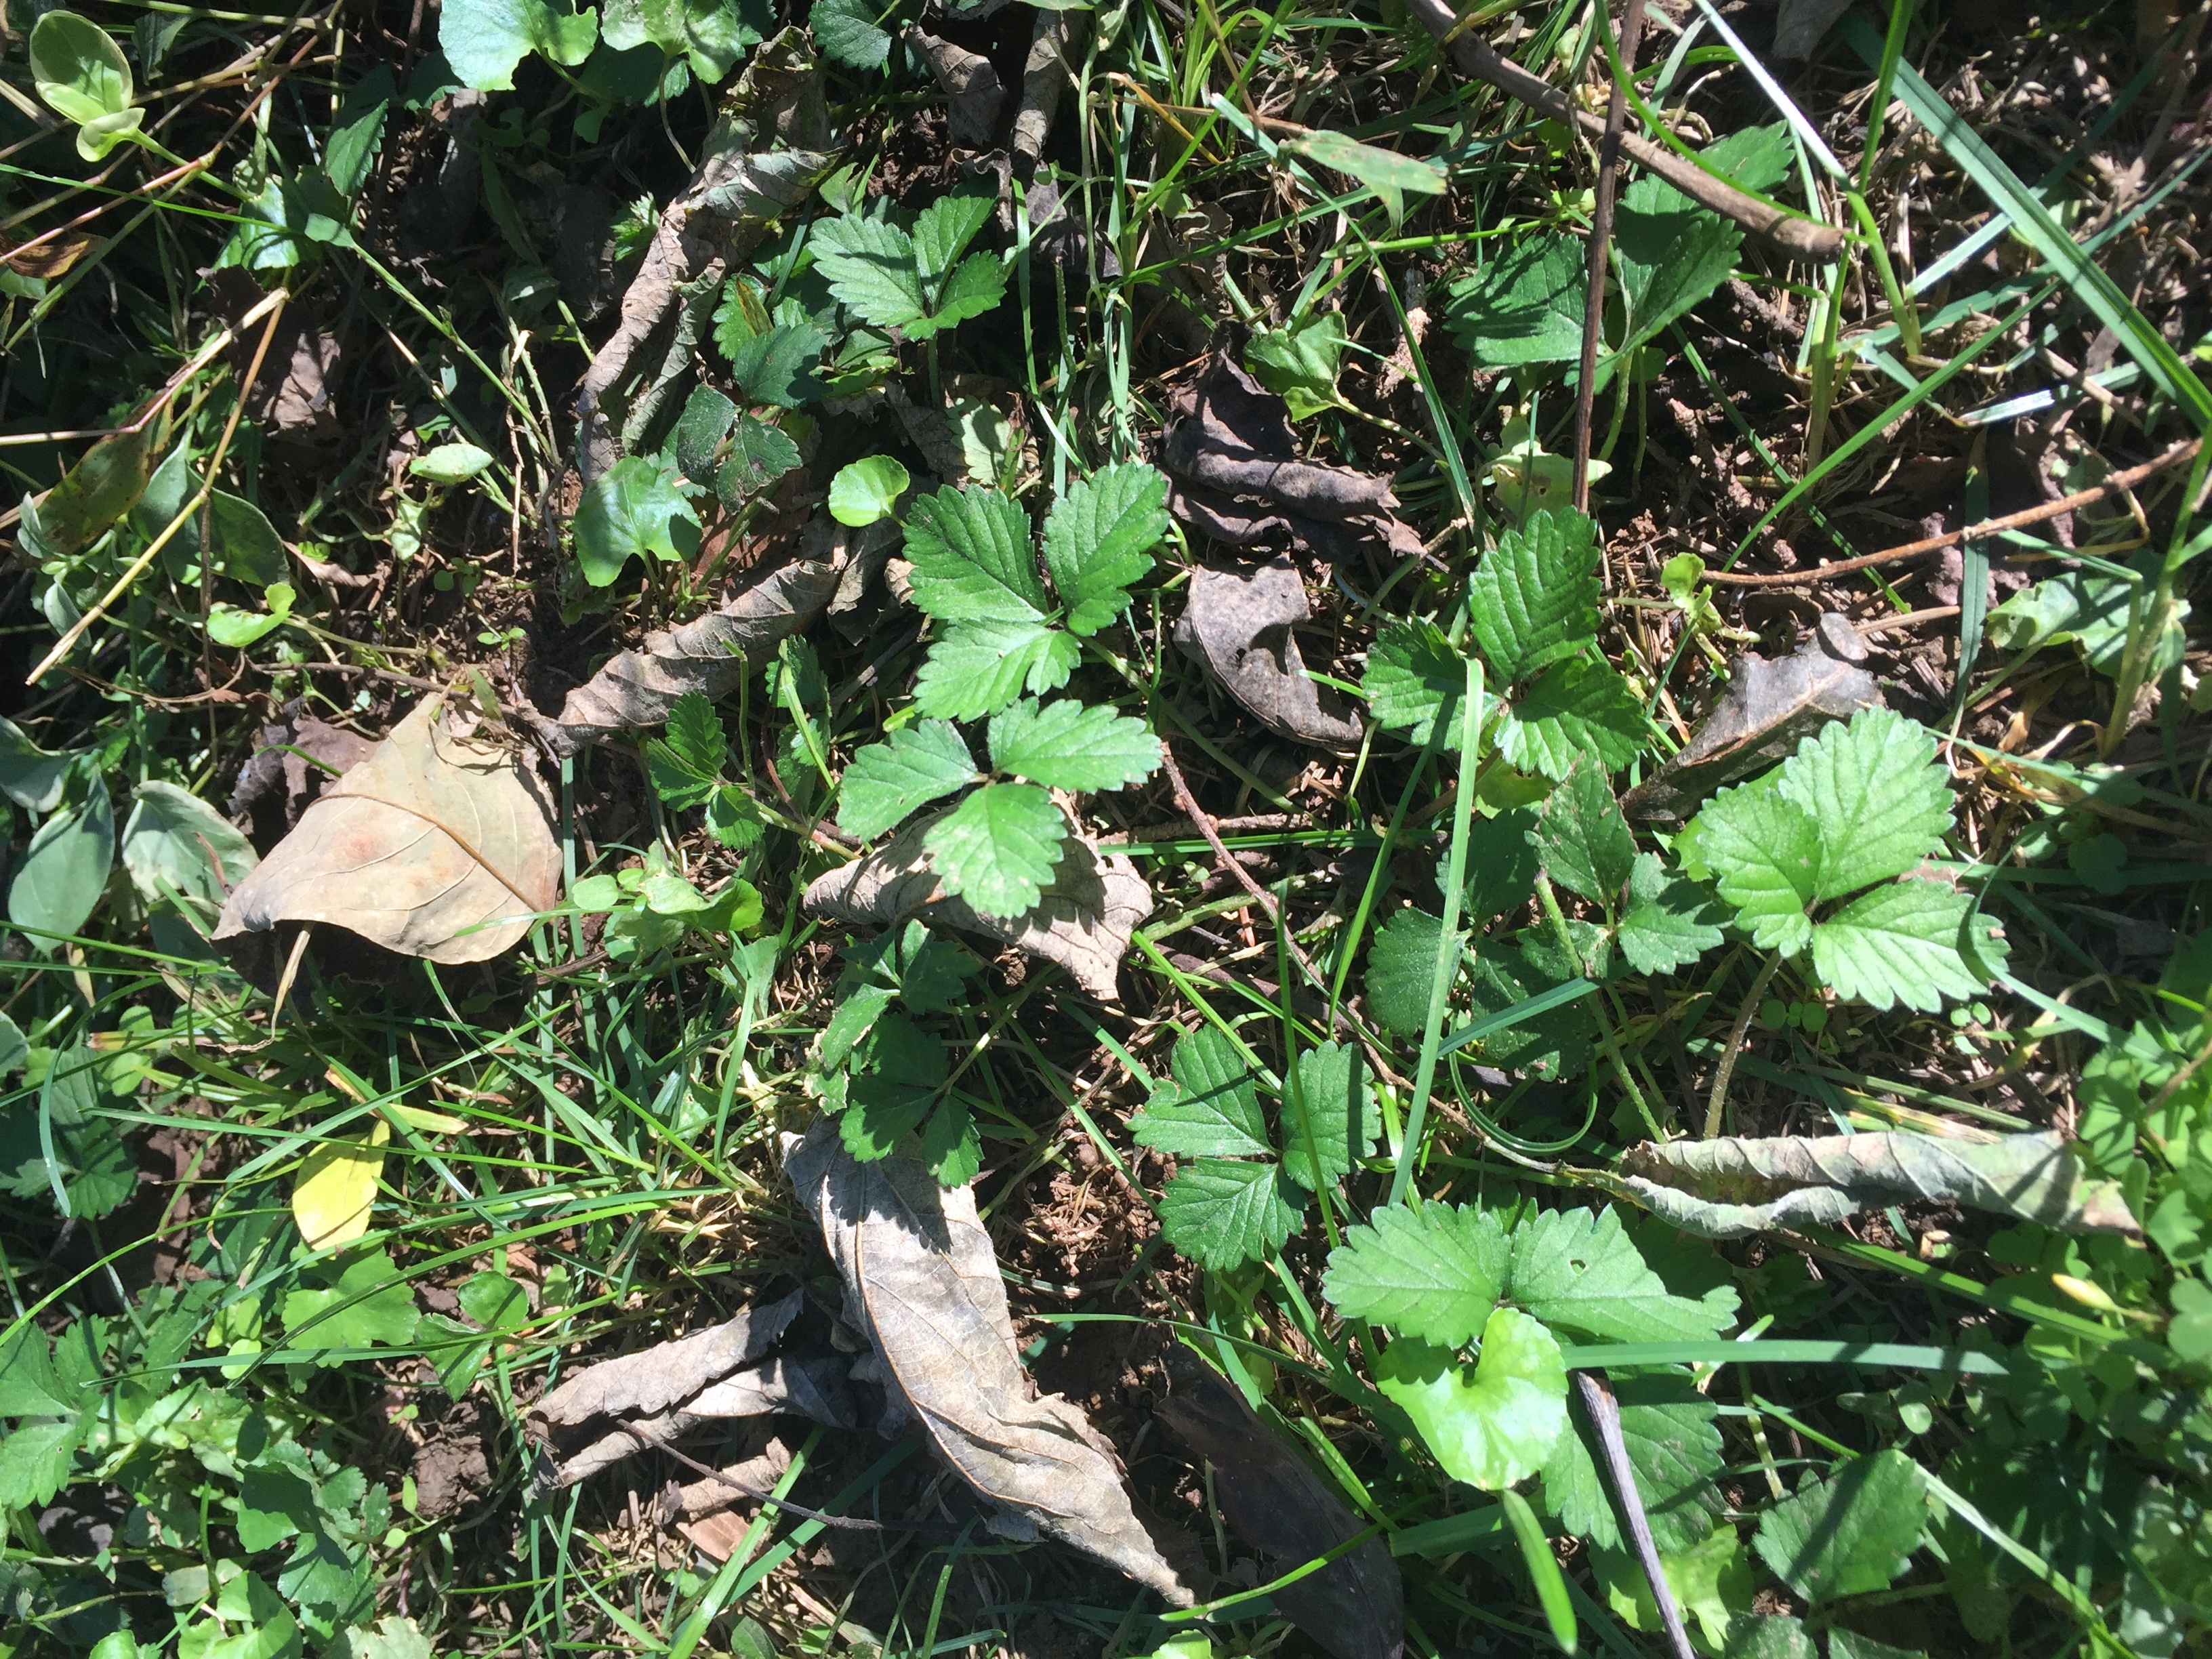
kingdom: Plantae
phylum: Tracheophyta
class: Magnoliopsida
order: Rosales
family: Rosaceae
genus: Potentilla
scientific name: Potentilla indica
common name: Indian Strawberry
